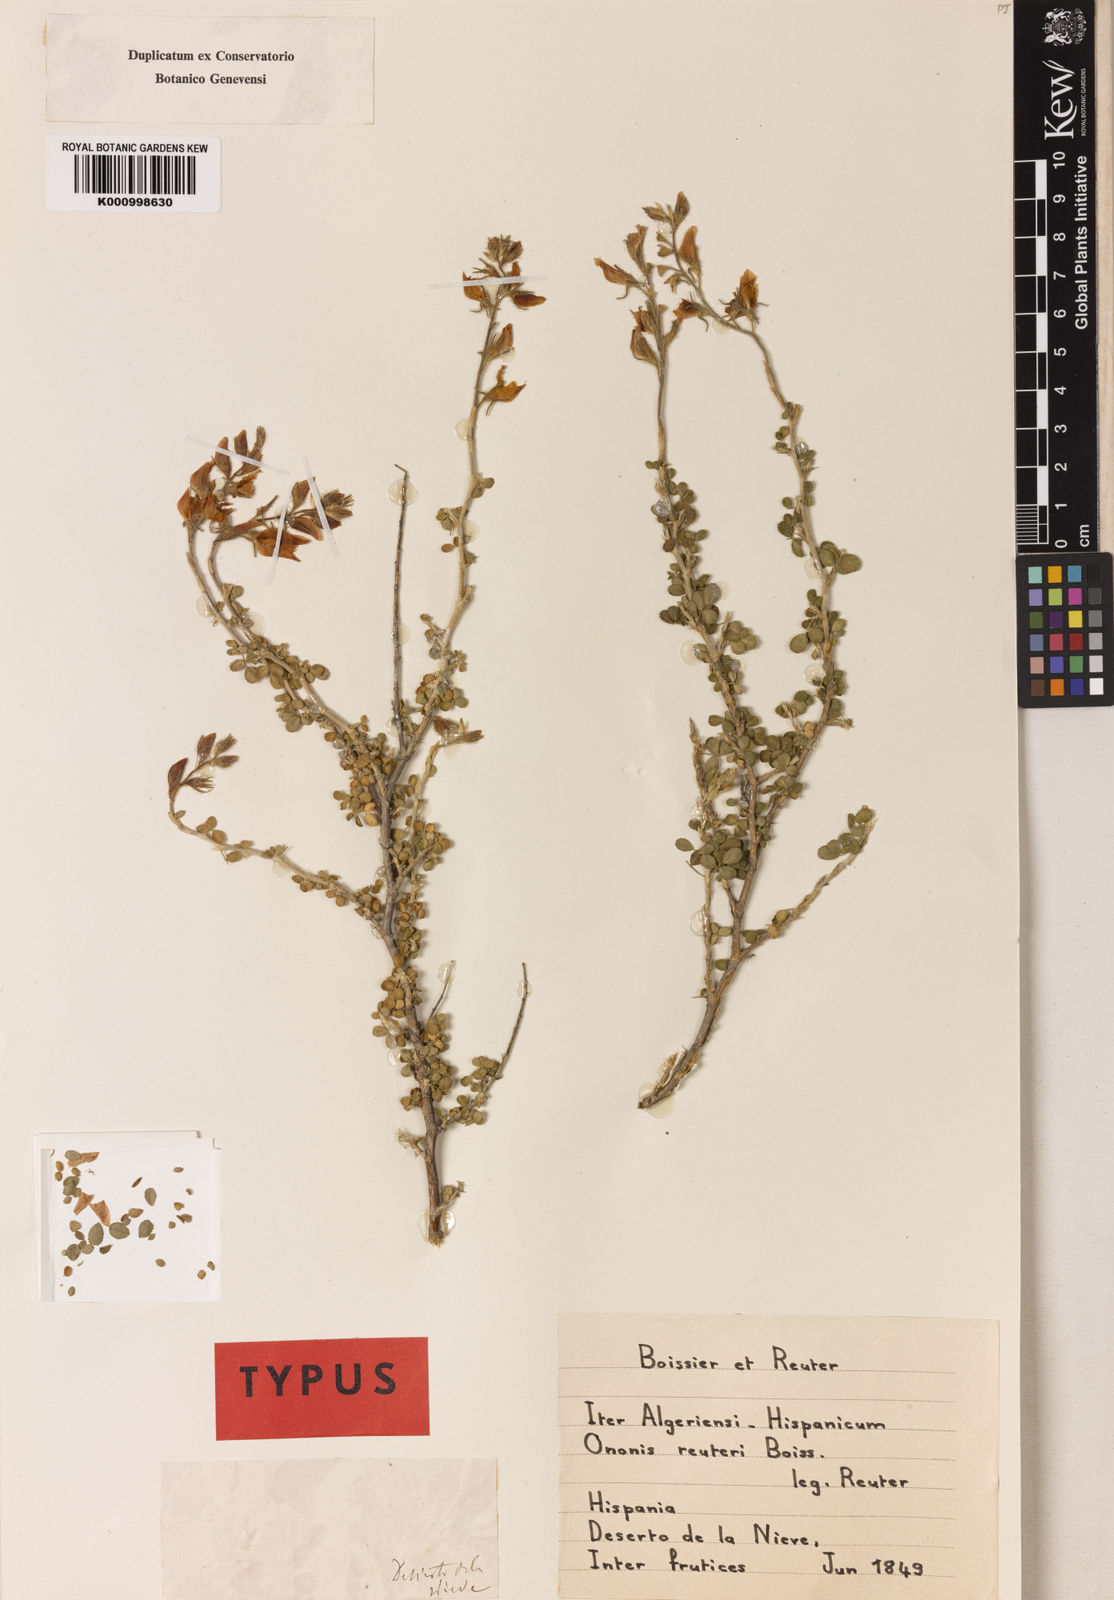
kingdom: Plantae
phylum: Tracheophyta
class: Magnoliopsida
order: Fabales
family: Fabaceae
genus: Ononis
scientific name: Ononis reuteri
